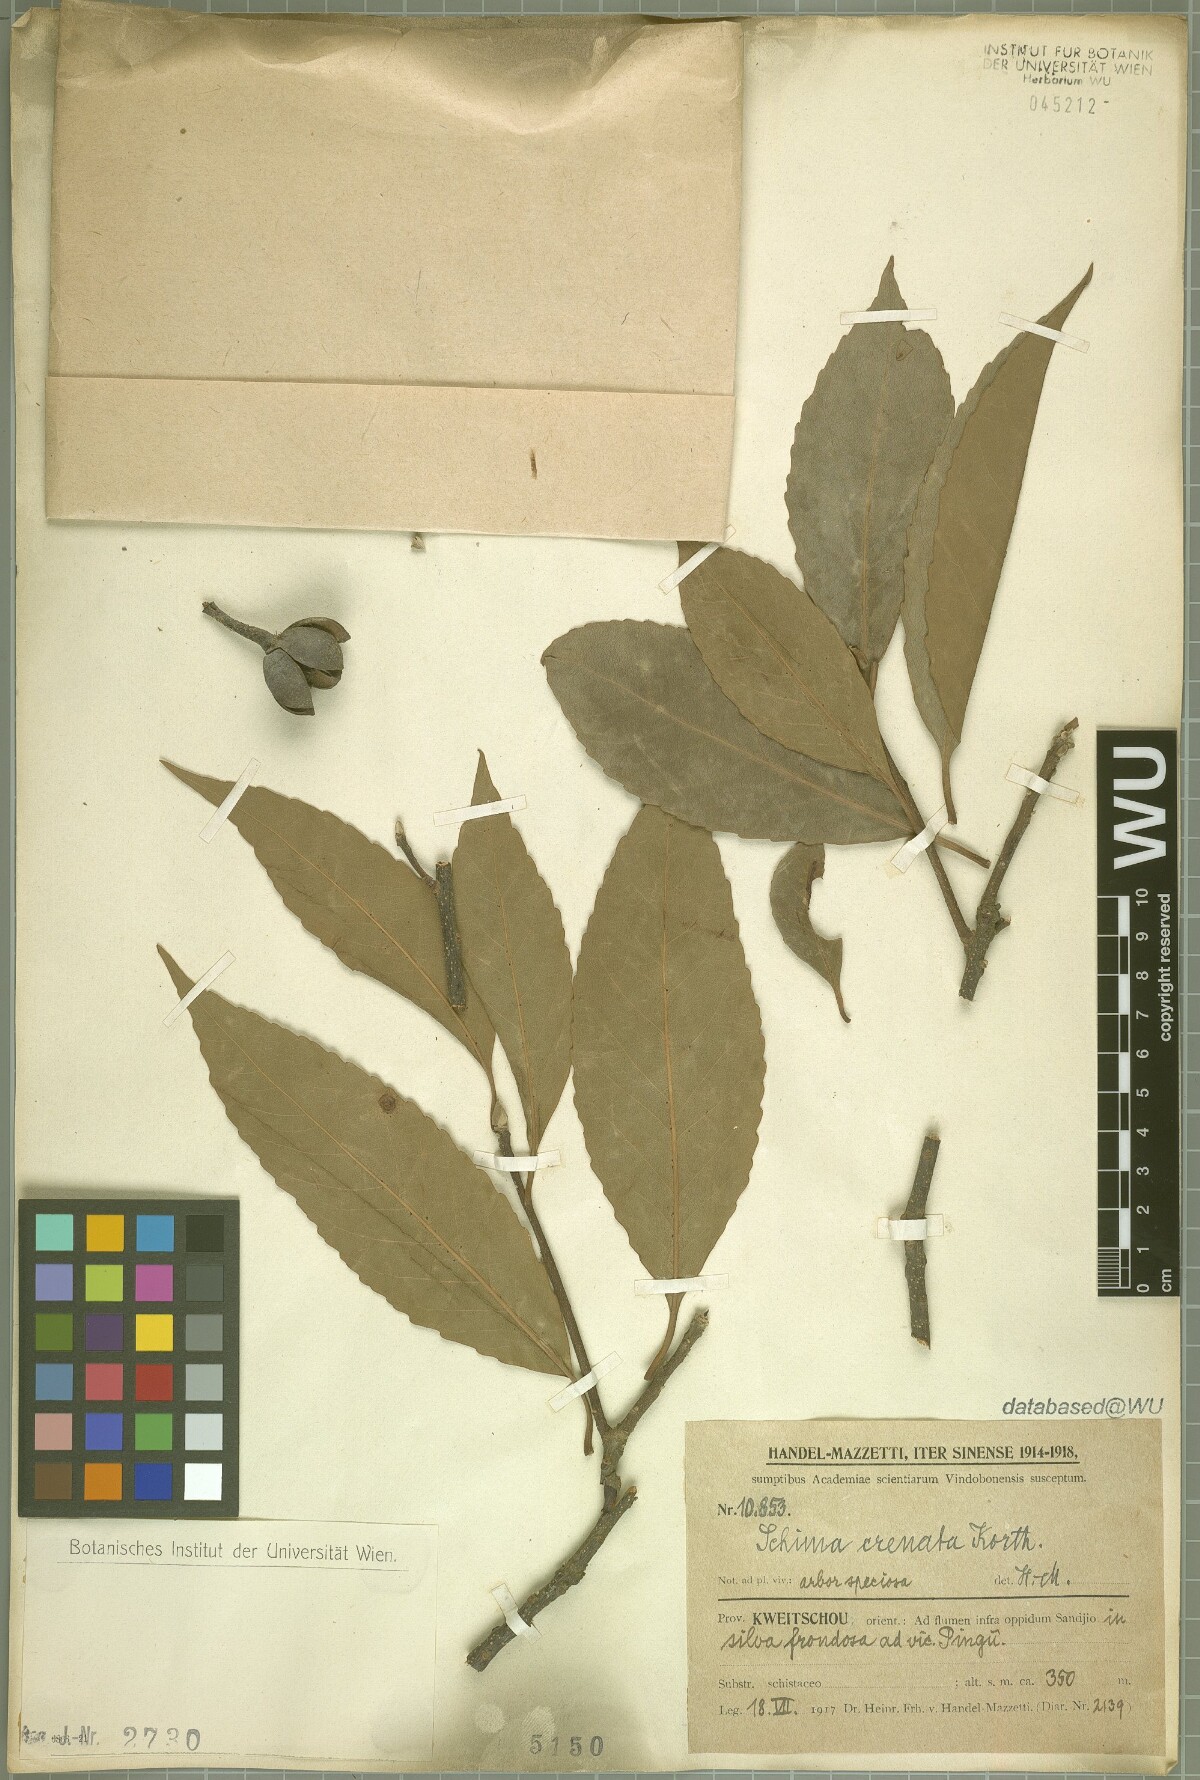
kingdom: Plantae
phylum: Tracheophyta
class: Magnoliopsida
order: Ericales
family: Theaceae
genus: Schima
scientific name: Schima wallichii
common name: Schima
